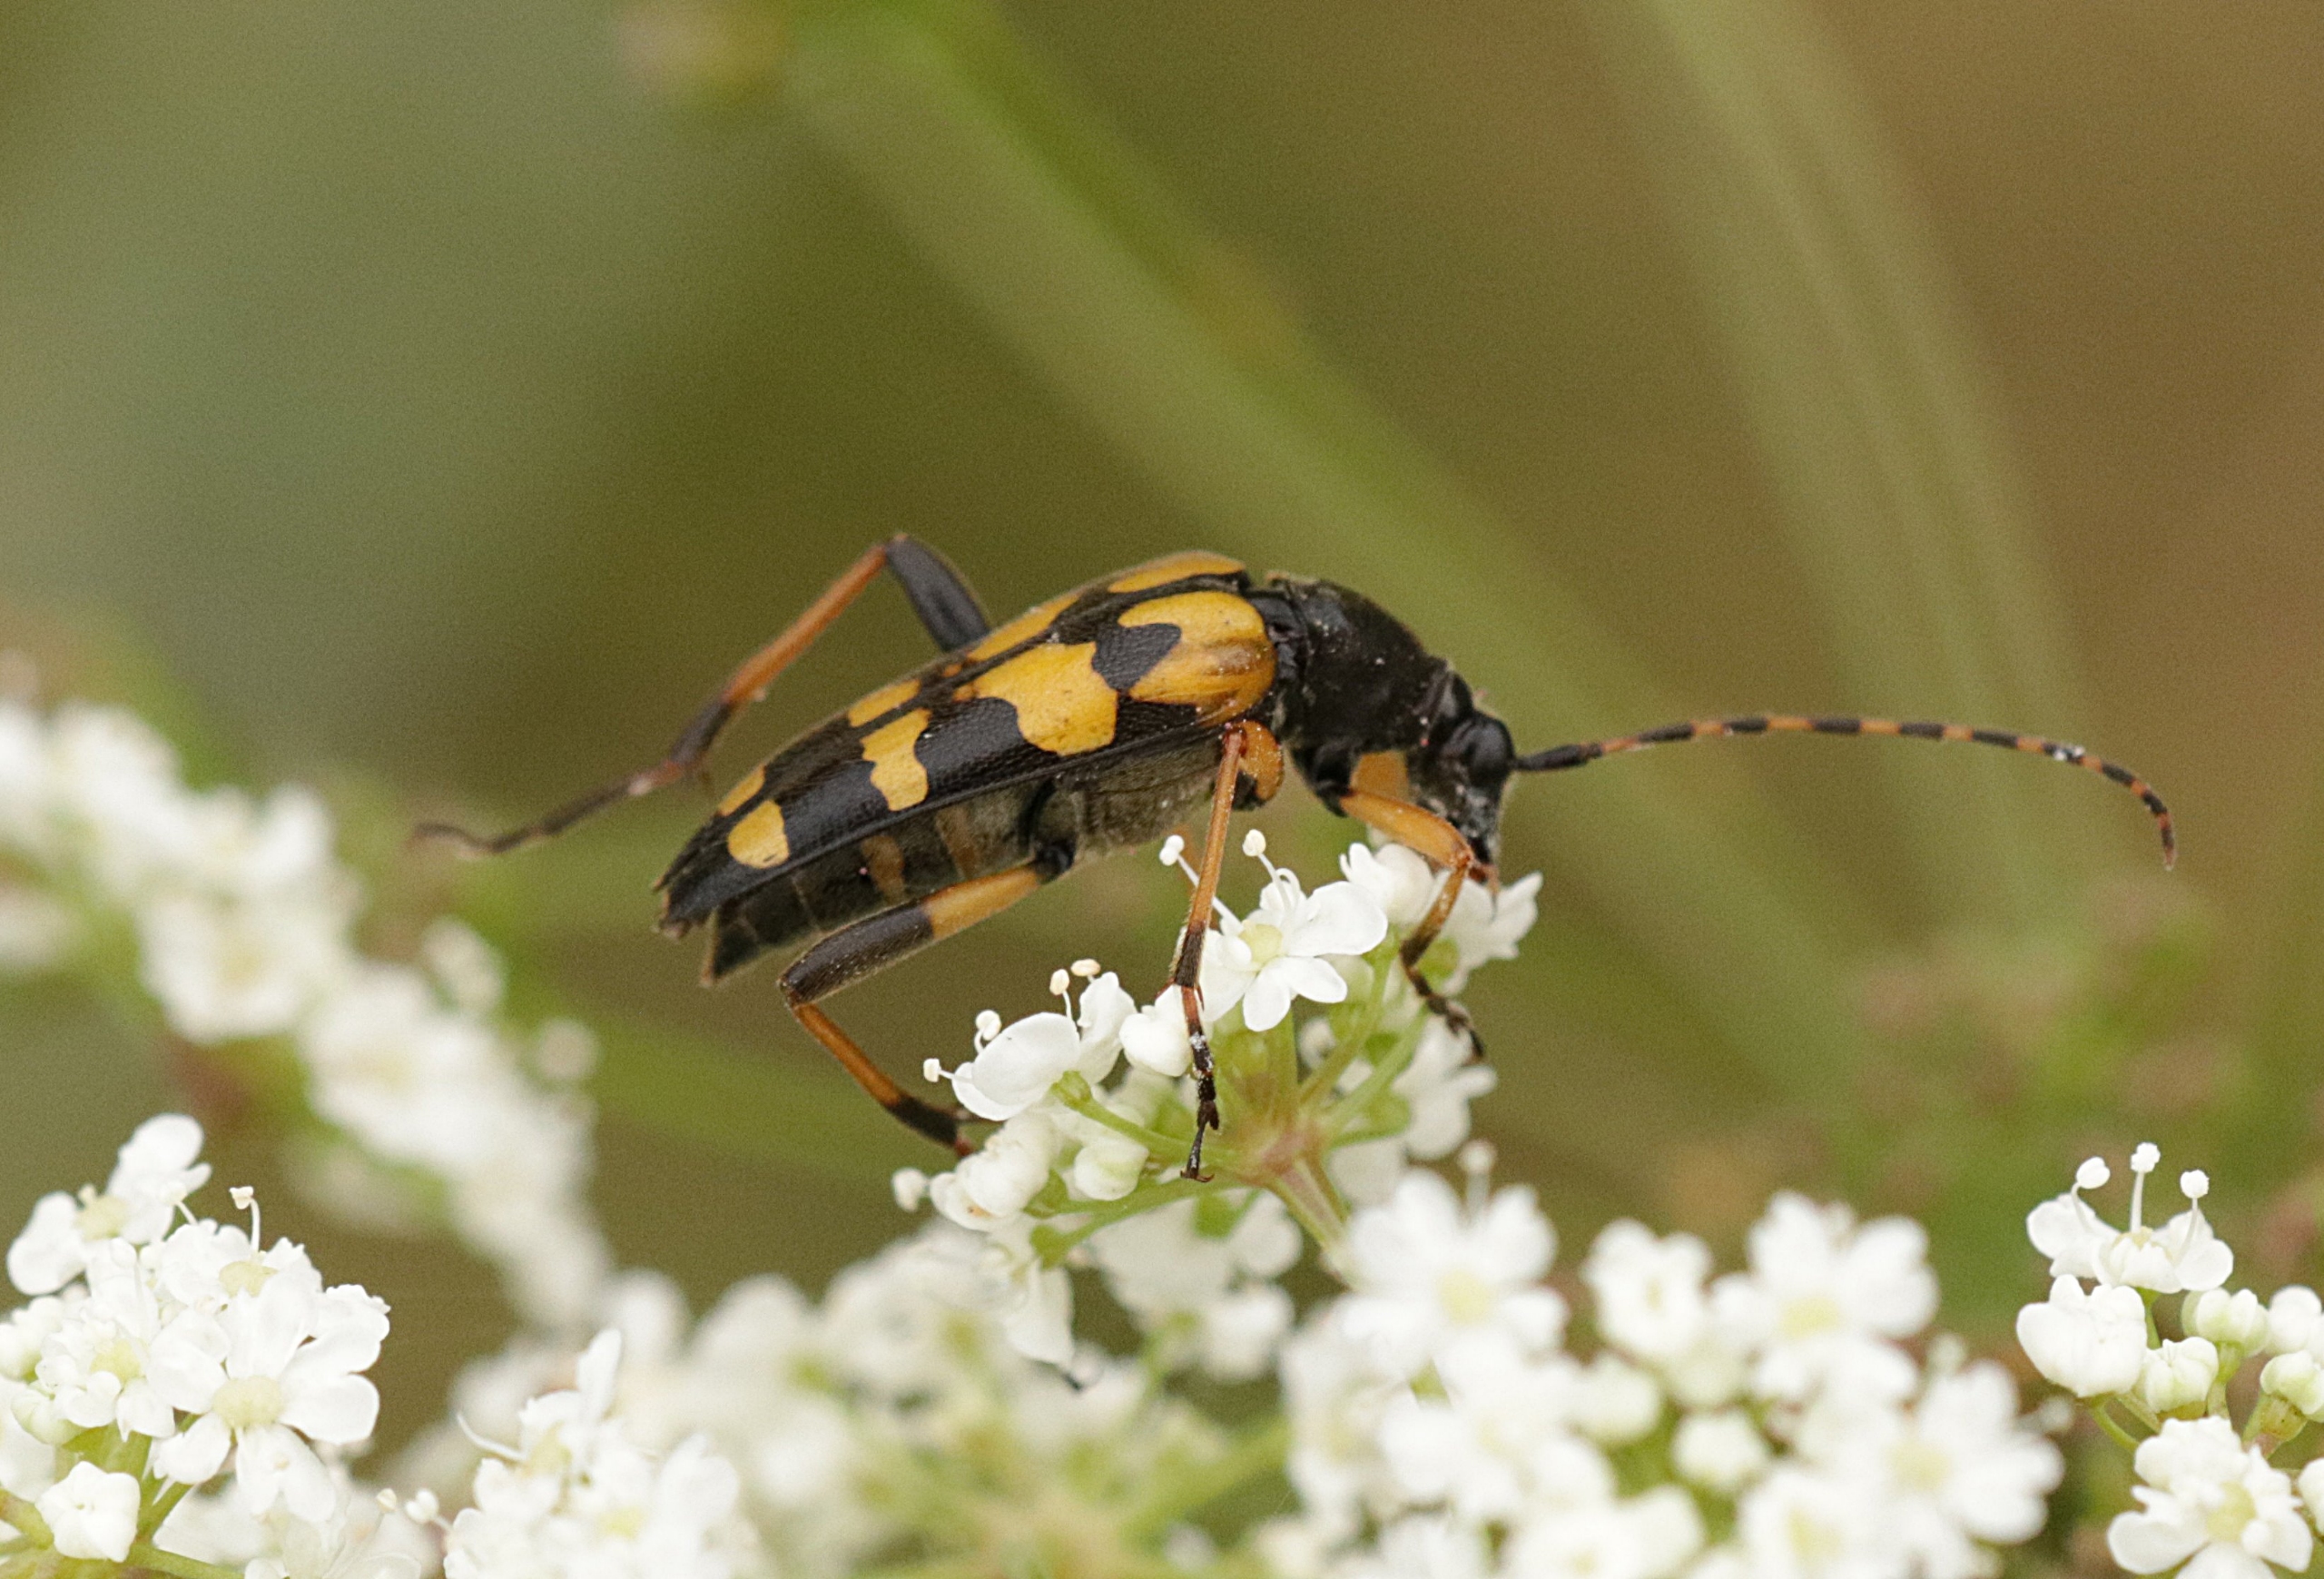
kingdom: Animalia
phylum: Arthropoda
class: Insecta
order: Coleoptera
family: Cerambycidae
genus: Rutpela
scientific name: Rutpela maculata
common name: Sydlig blomsterbuk
